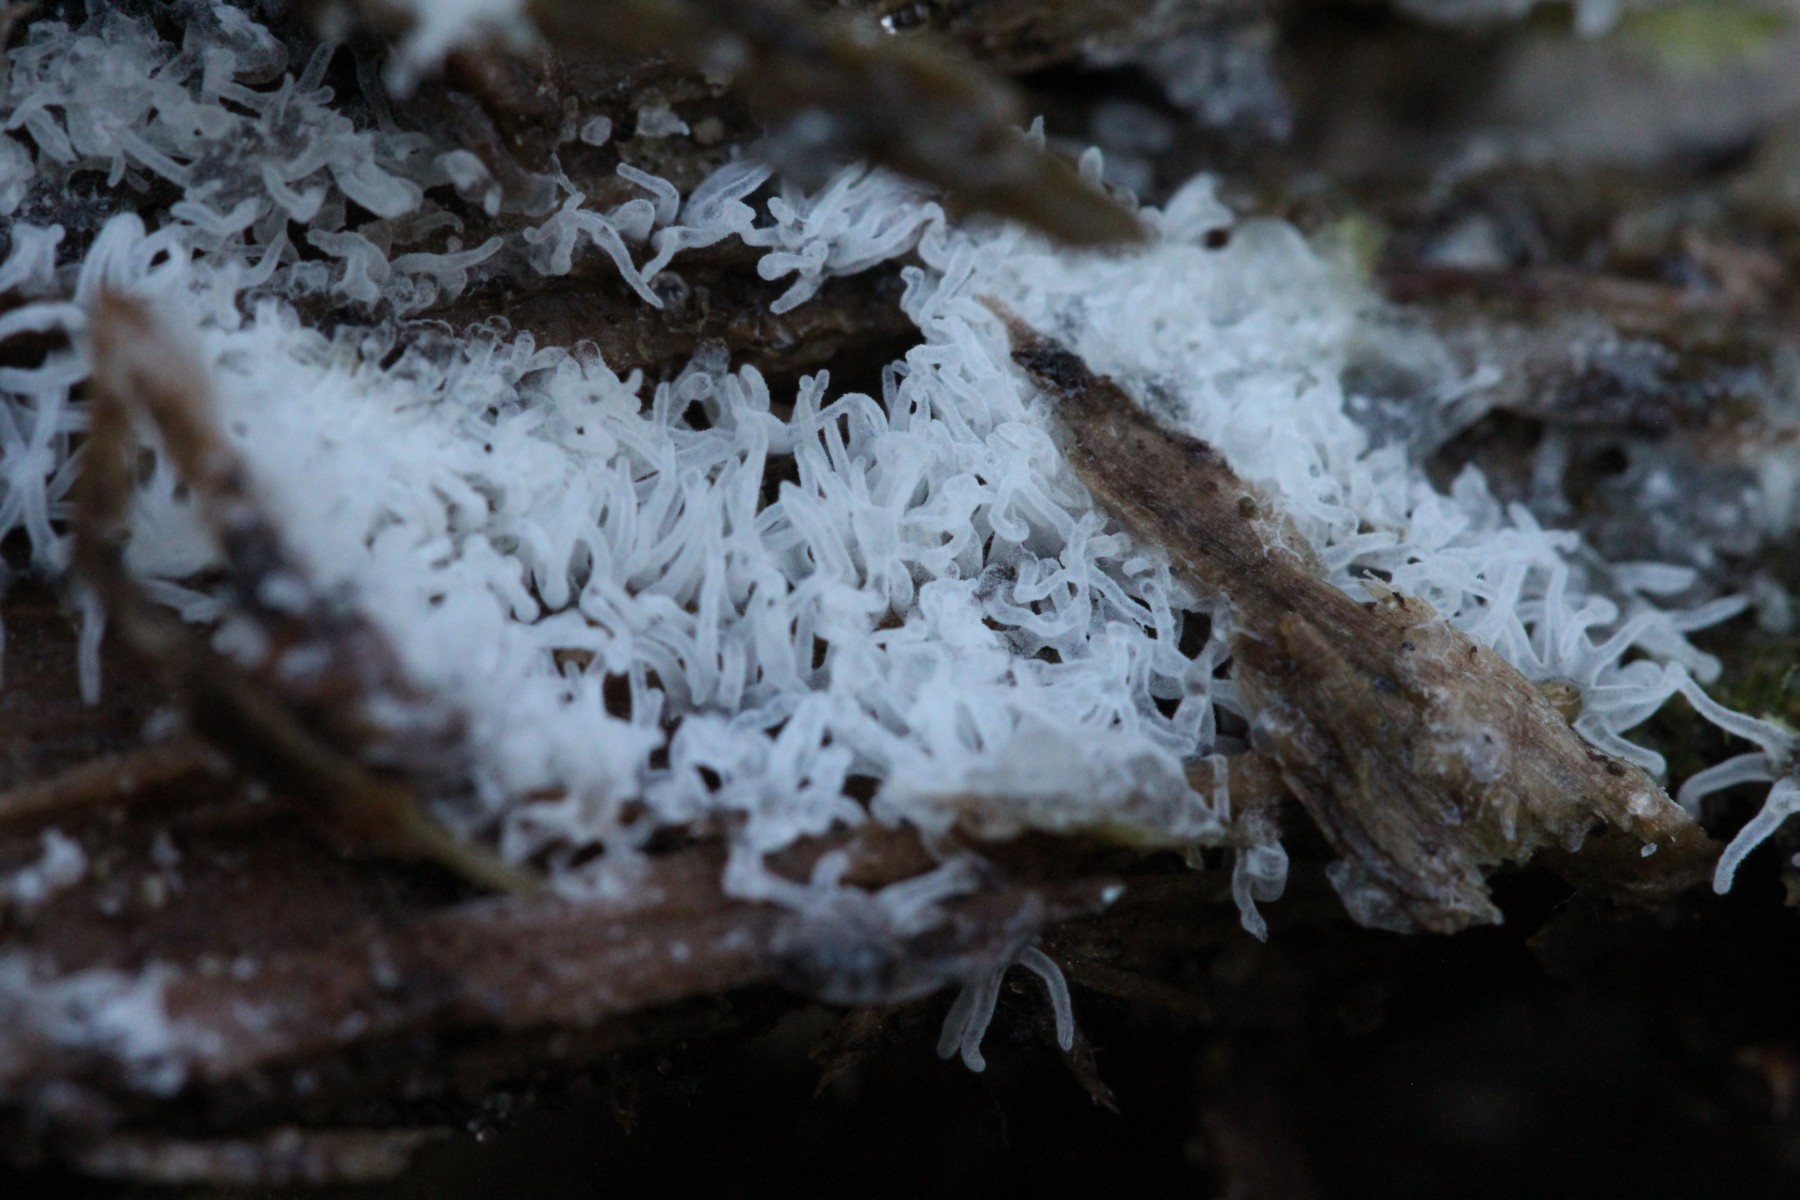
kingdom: Protozoa
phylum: Mycetozoa
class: Protosteliomycetes
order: Ceratiomyxales
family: Ceratiomyxaceae
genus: Ceratiomyxa
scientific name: Ceratiomyxa fruticulosa
